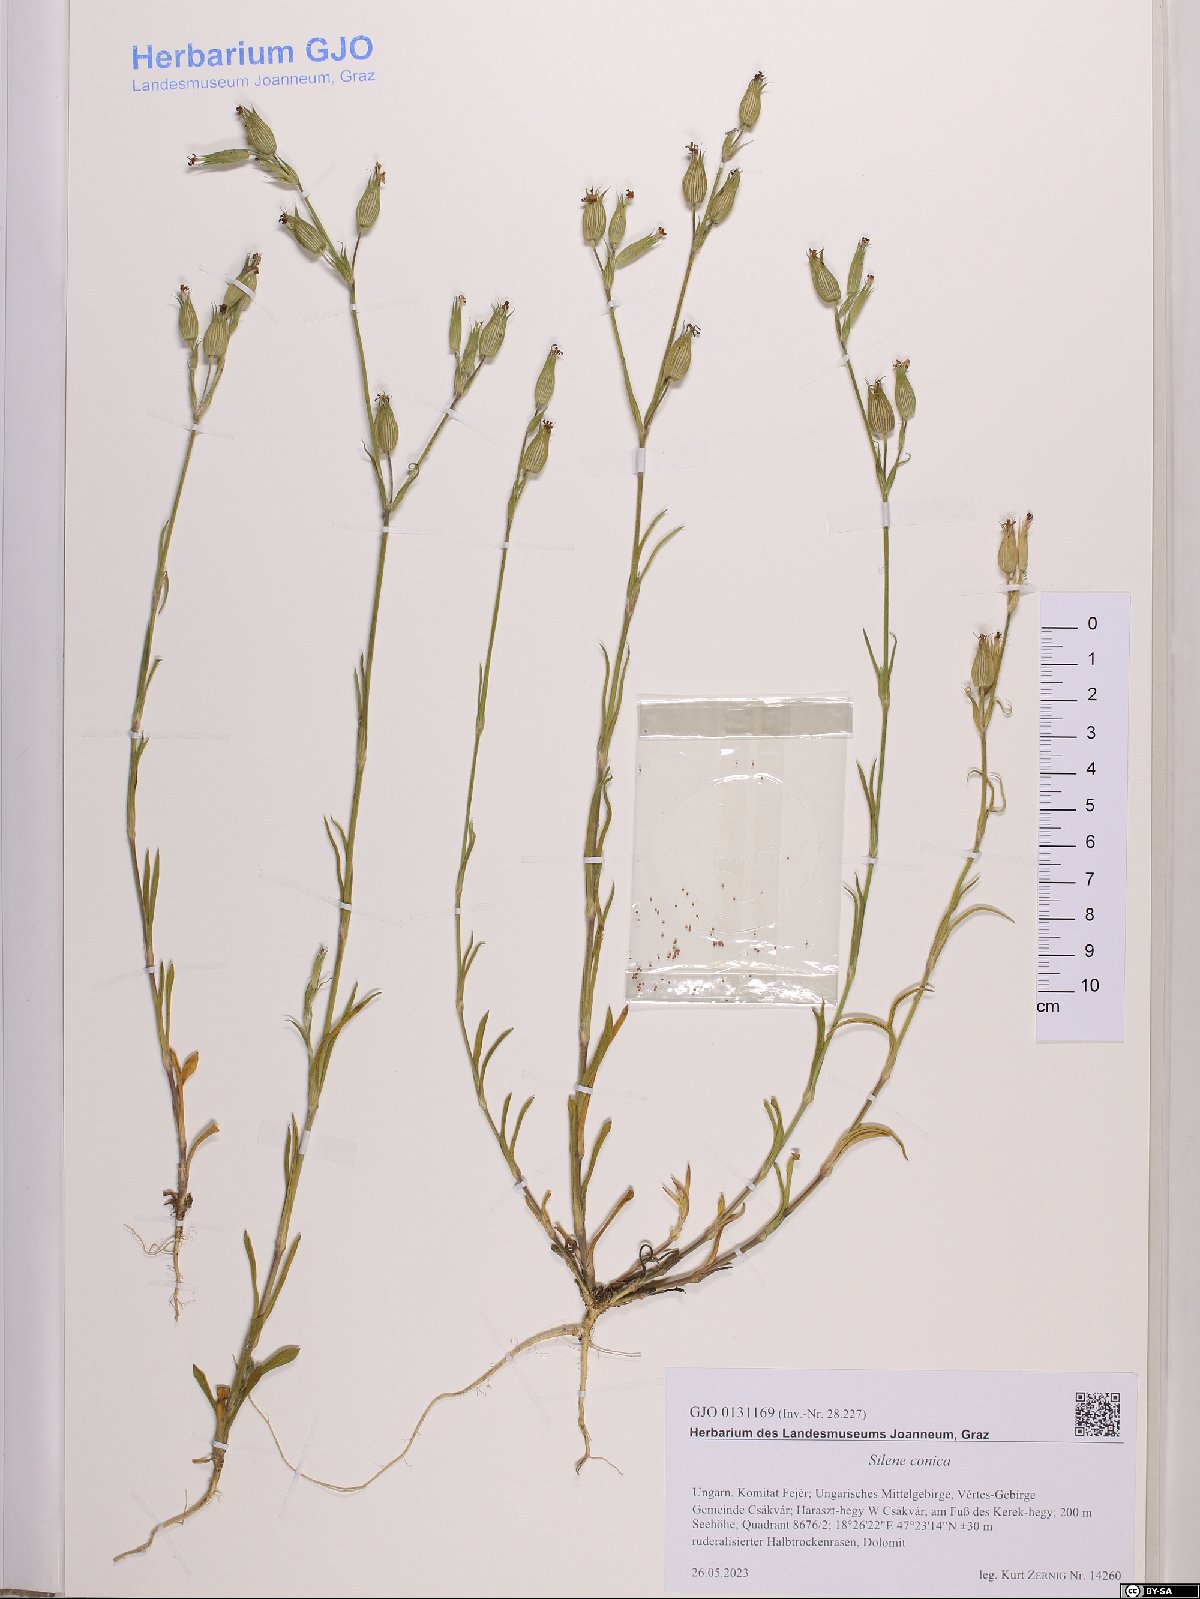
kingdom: Plantae
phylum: Tracheophyta
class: Magnoliopsida
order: Caryophyllales
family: Caryophyllaceae
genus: Silene
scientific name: Silene conica
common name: Sand catchfly
